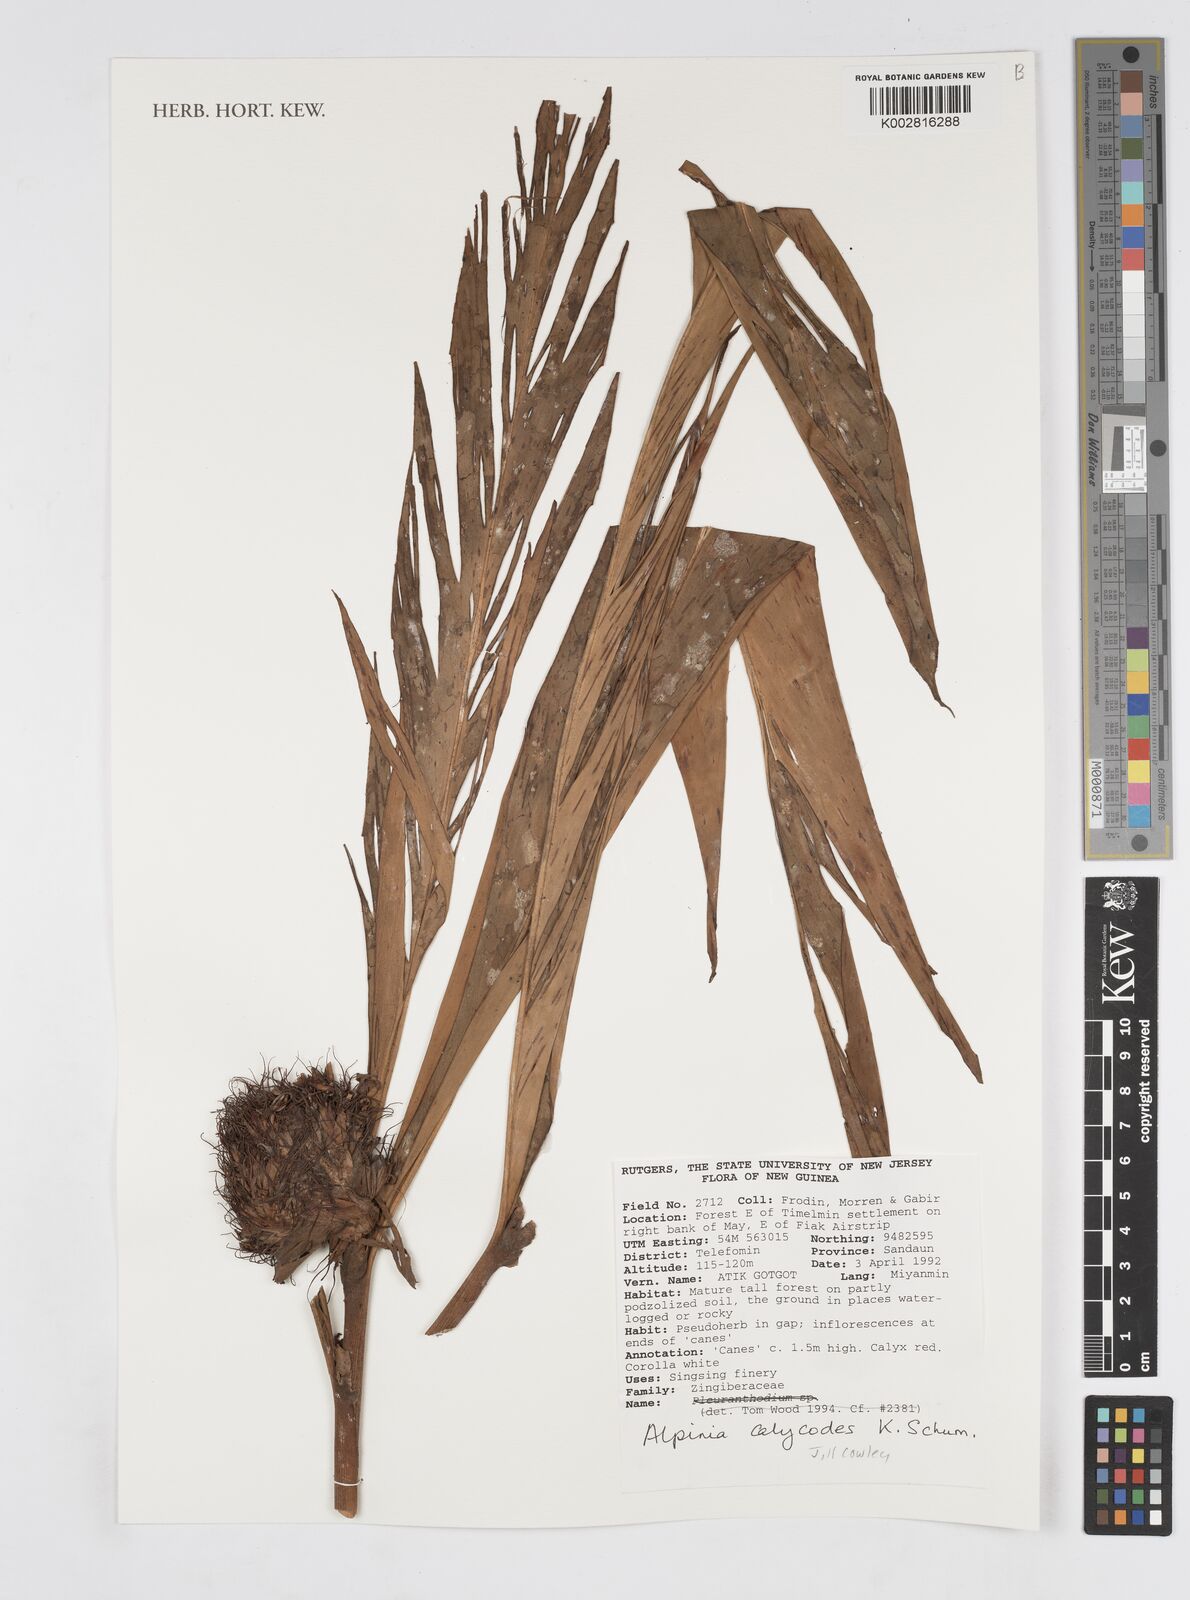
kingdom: Plantae
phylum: Tracheophyta
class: Liliopsida
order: Zingiberales
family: Zingiberaceae
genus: Alpinia
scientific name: Alpinia calycodes
